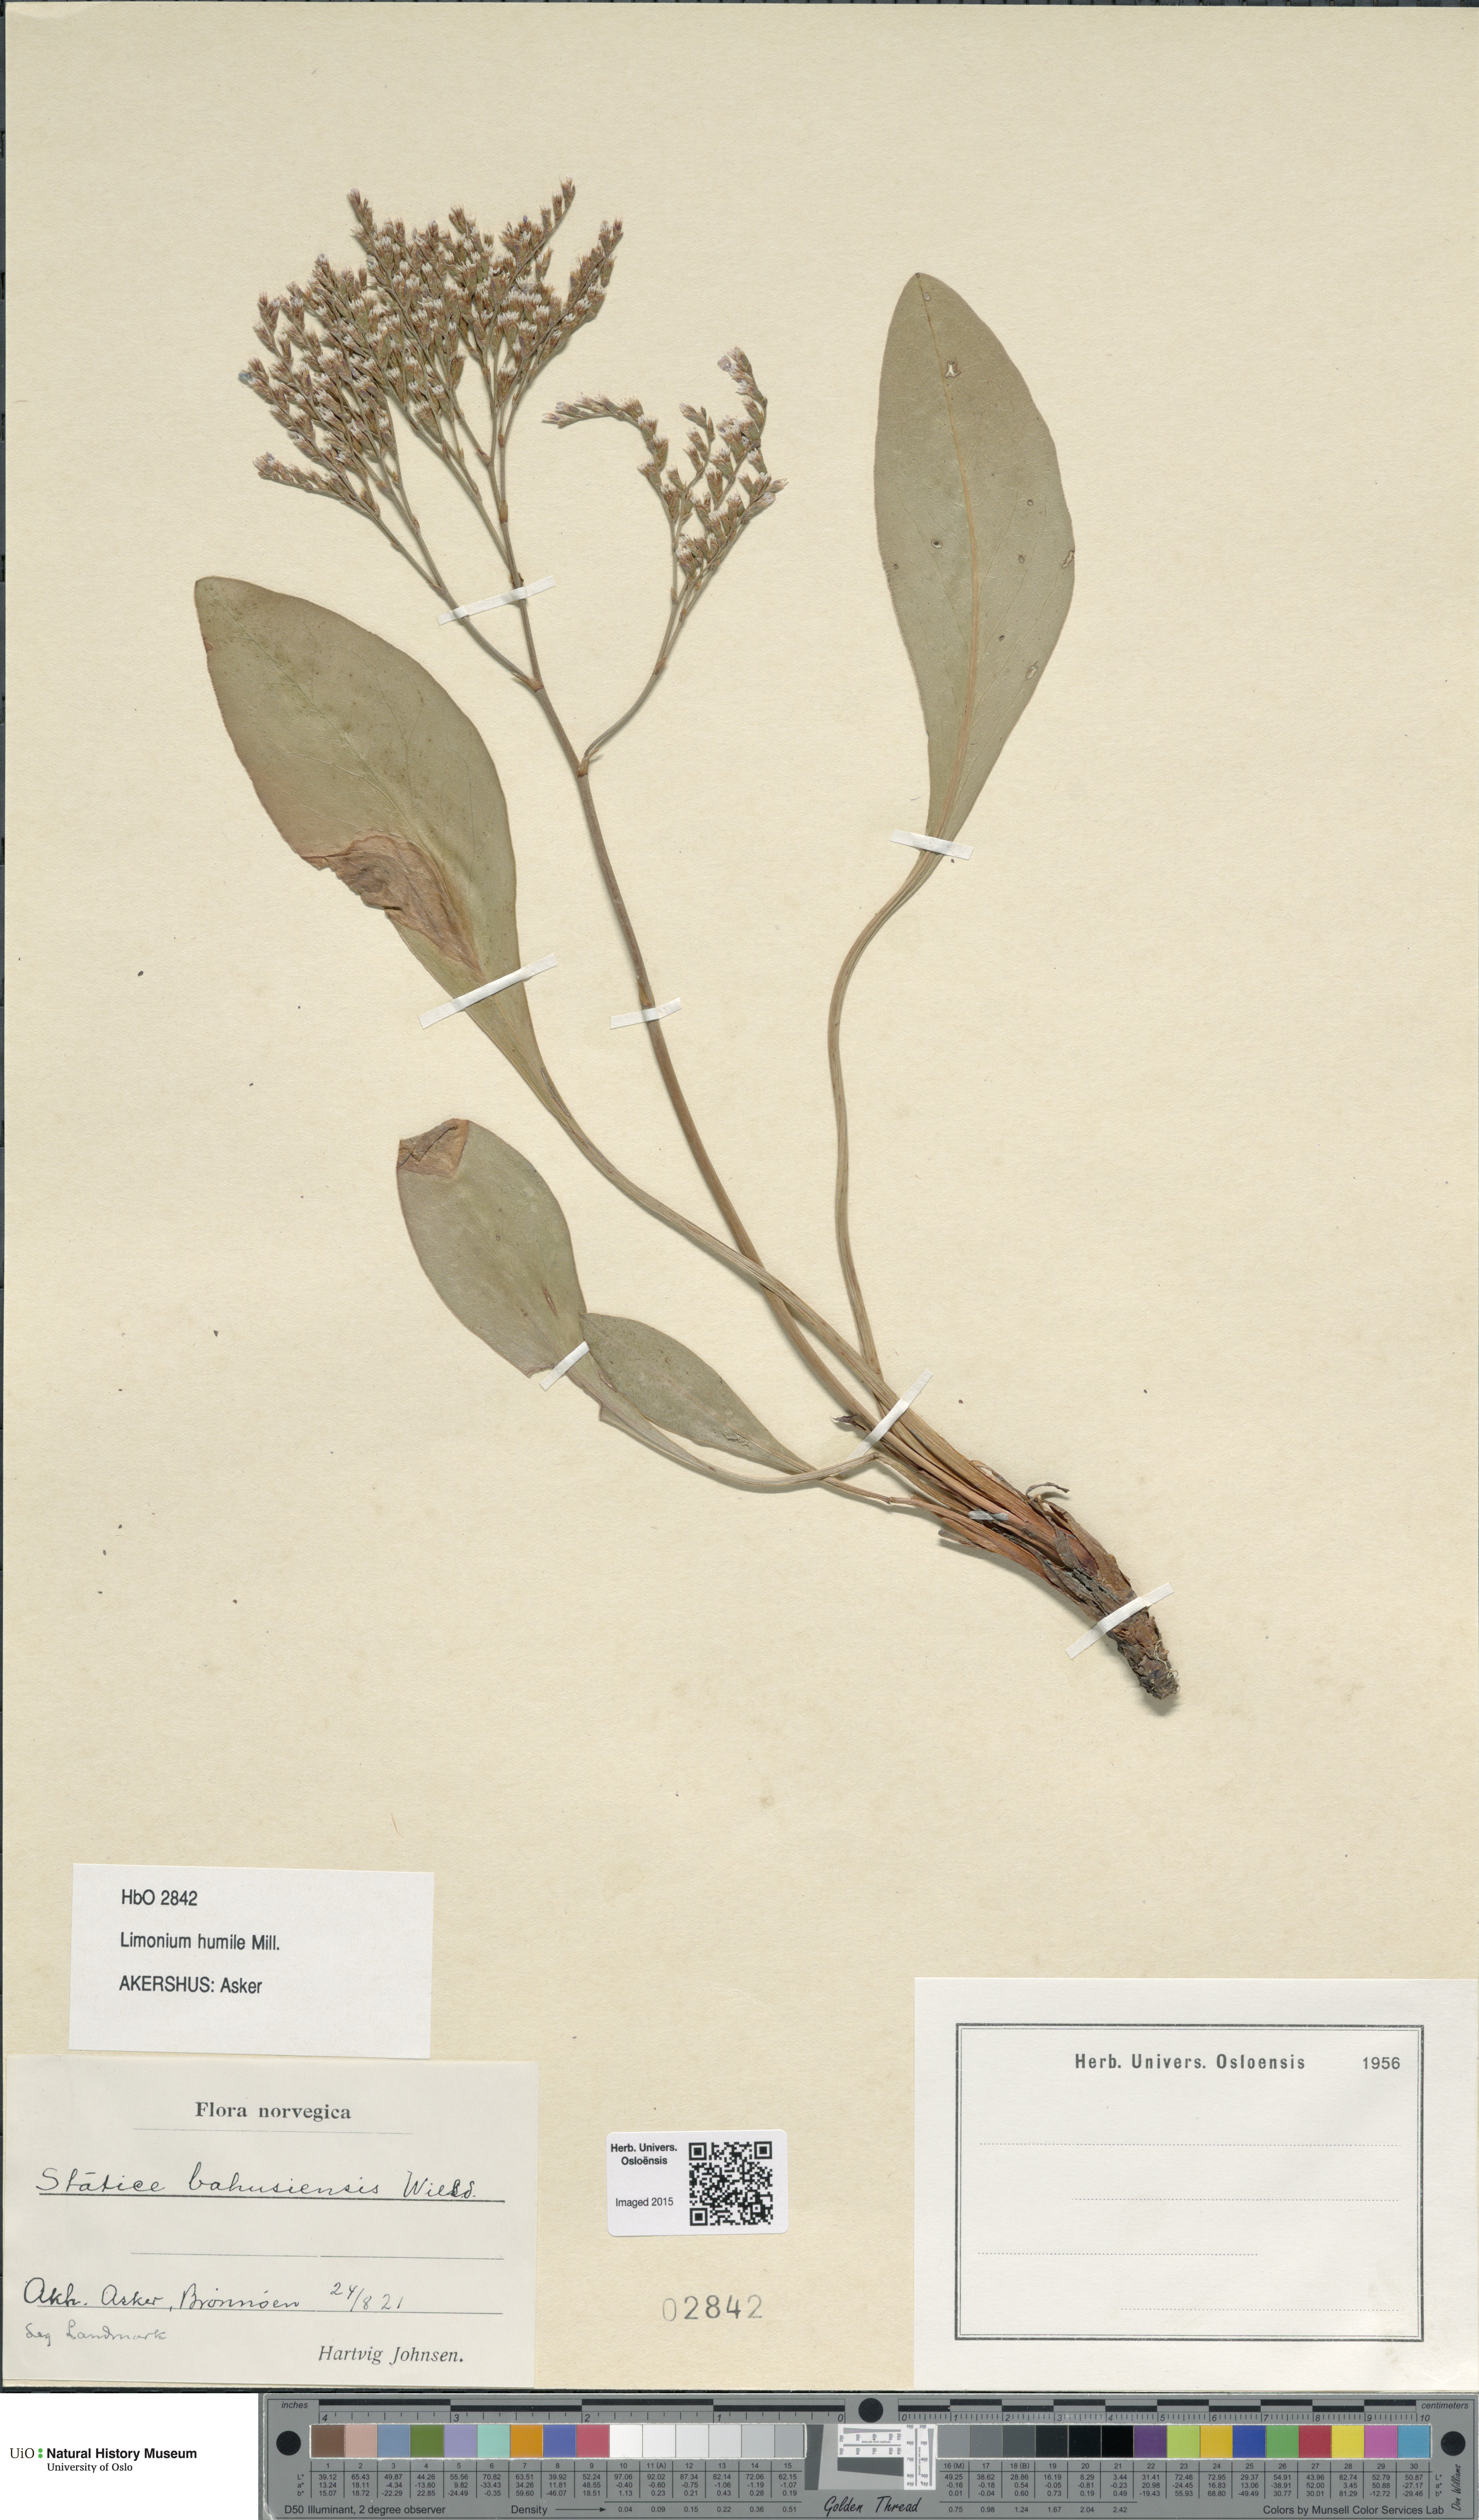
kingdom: Plantae
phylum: Tracheophyta
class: Magnoliopsida
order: Caryophyllales
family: Plumbaginaceae
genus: Limonium
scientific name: Limonium humile
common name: Lax-flowered sea-lavender
